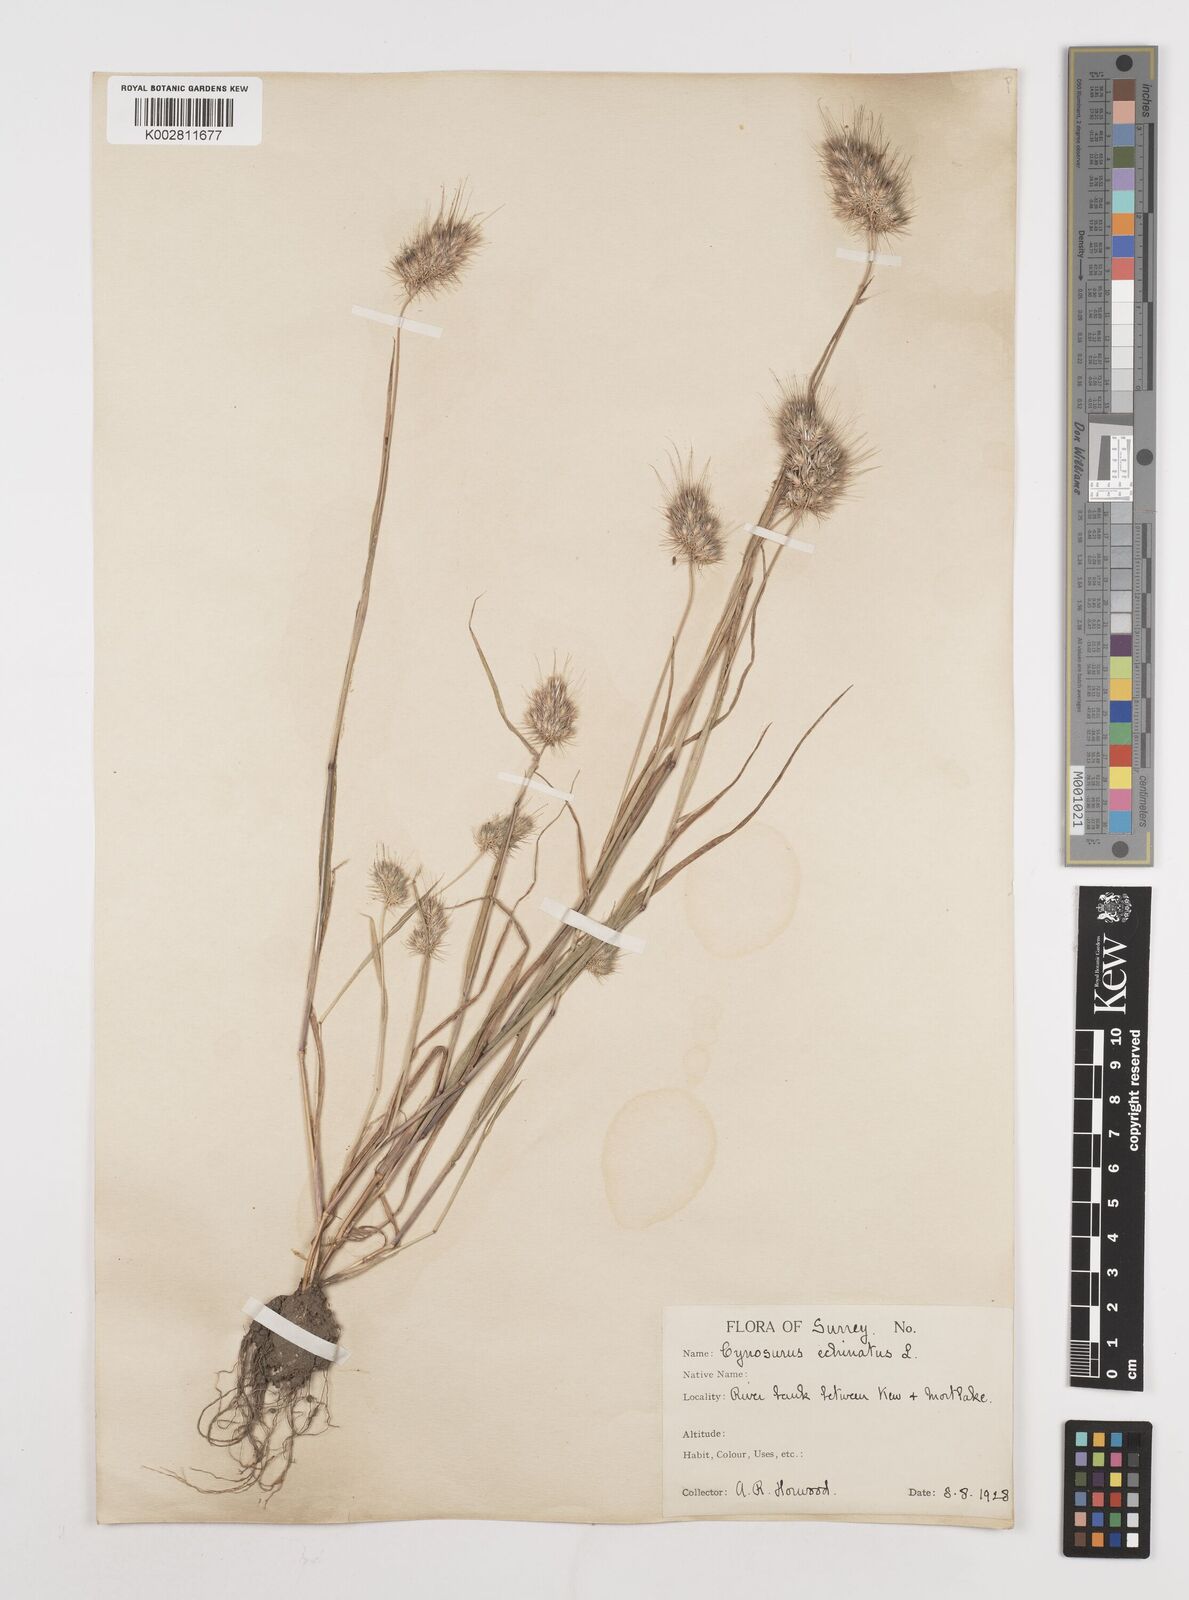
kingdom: Plantae
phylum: Tracheophyta
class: Liliopsida
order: Poales
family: Poaceae
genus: Cynosurus
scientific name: Cynosurus echinatus
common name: Rough dog's-tail
